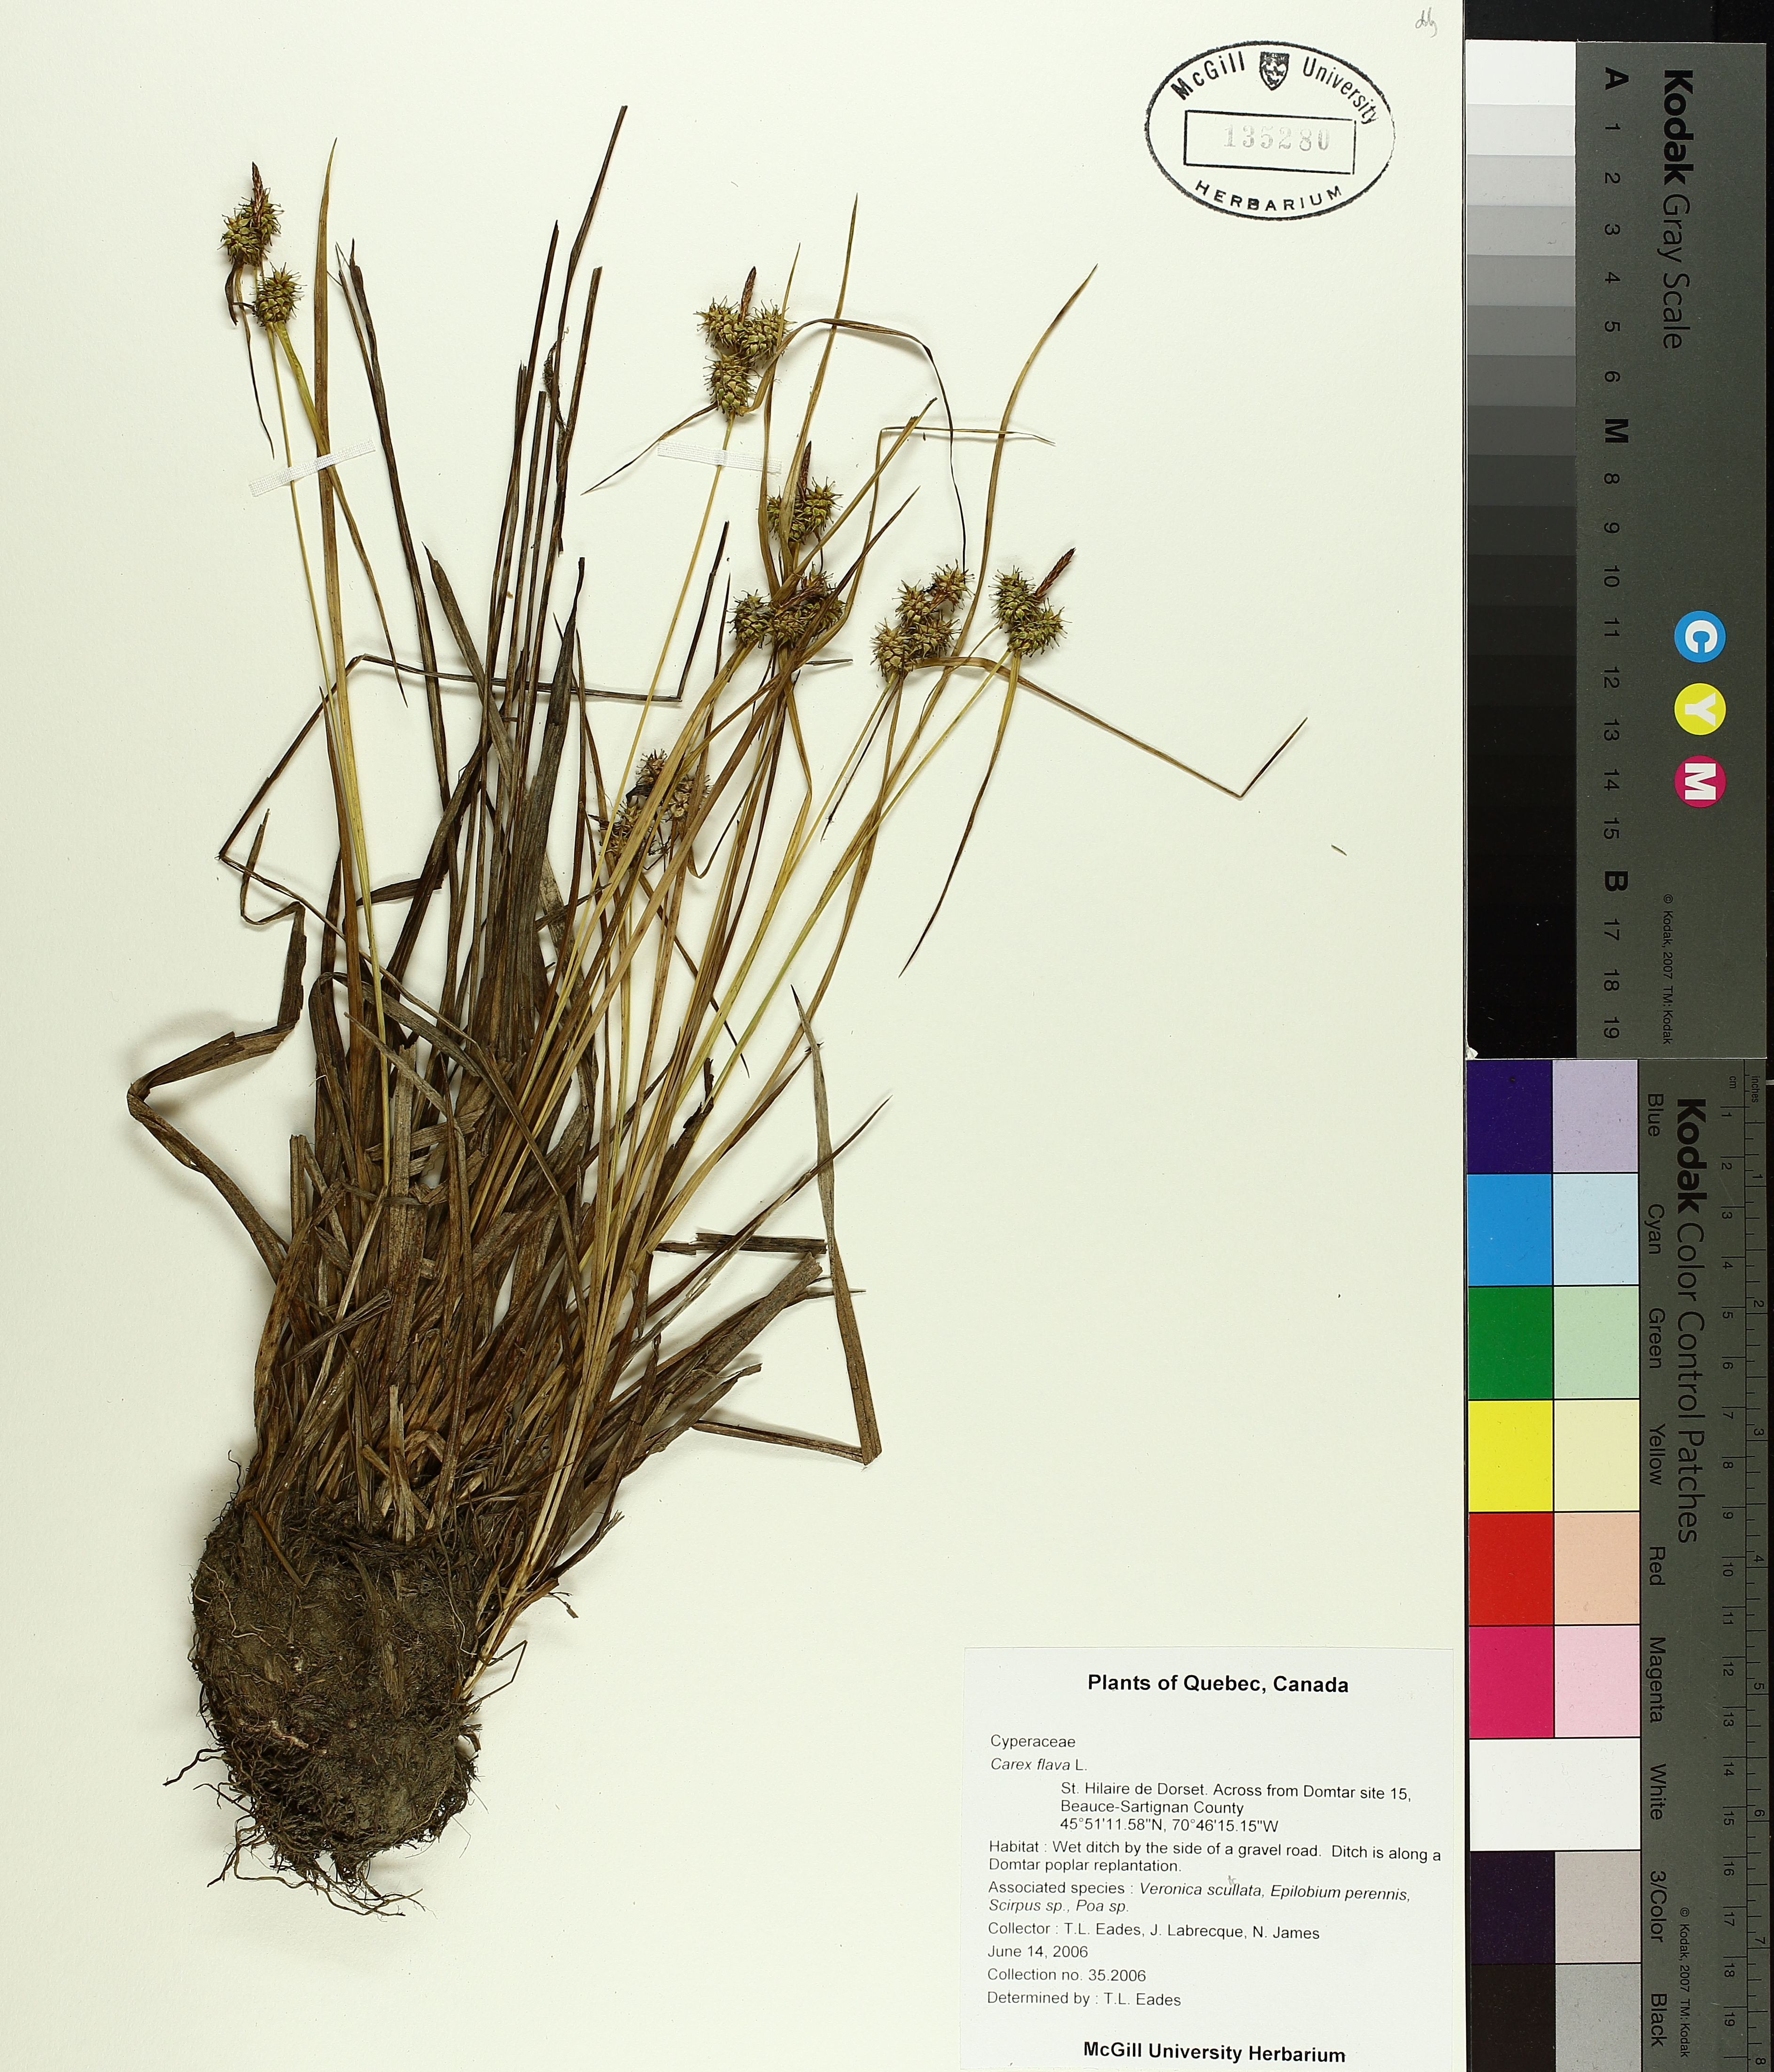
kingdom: Plantae
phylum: Tracheophyta
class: Liliopsida
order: Poales
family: Cyperaceae
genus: Carex
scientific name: Carex flava
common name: Large yellow-sedge
